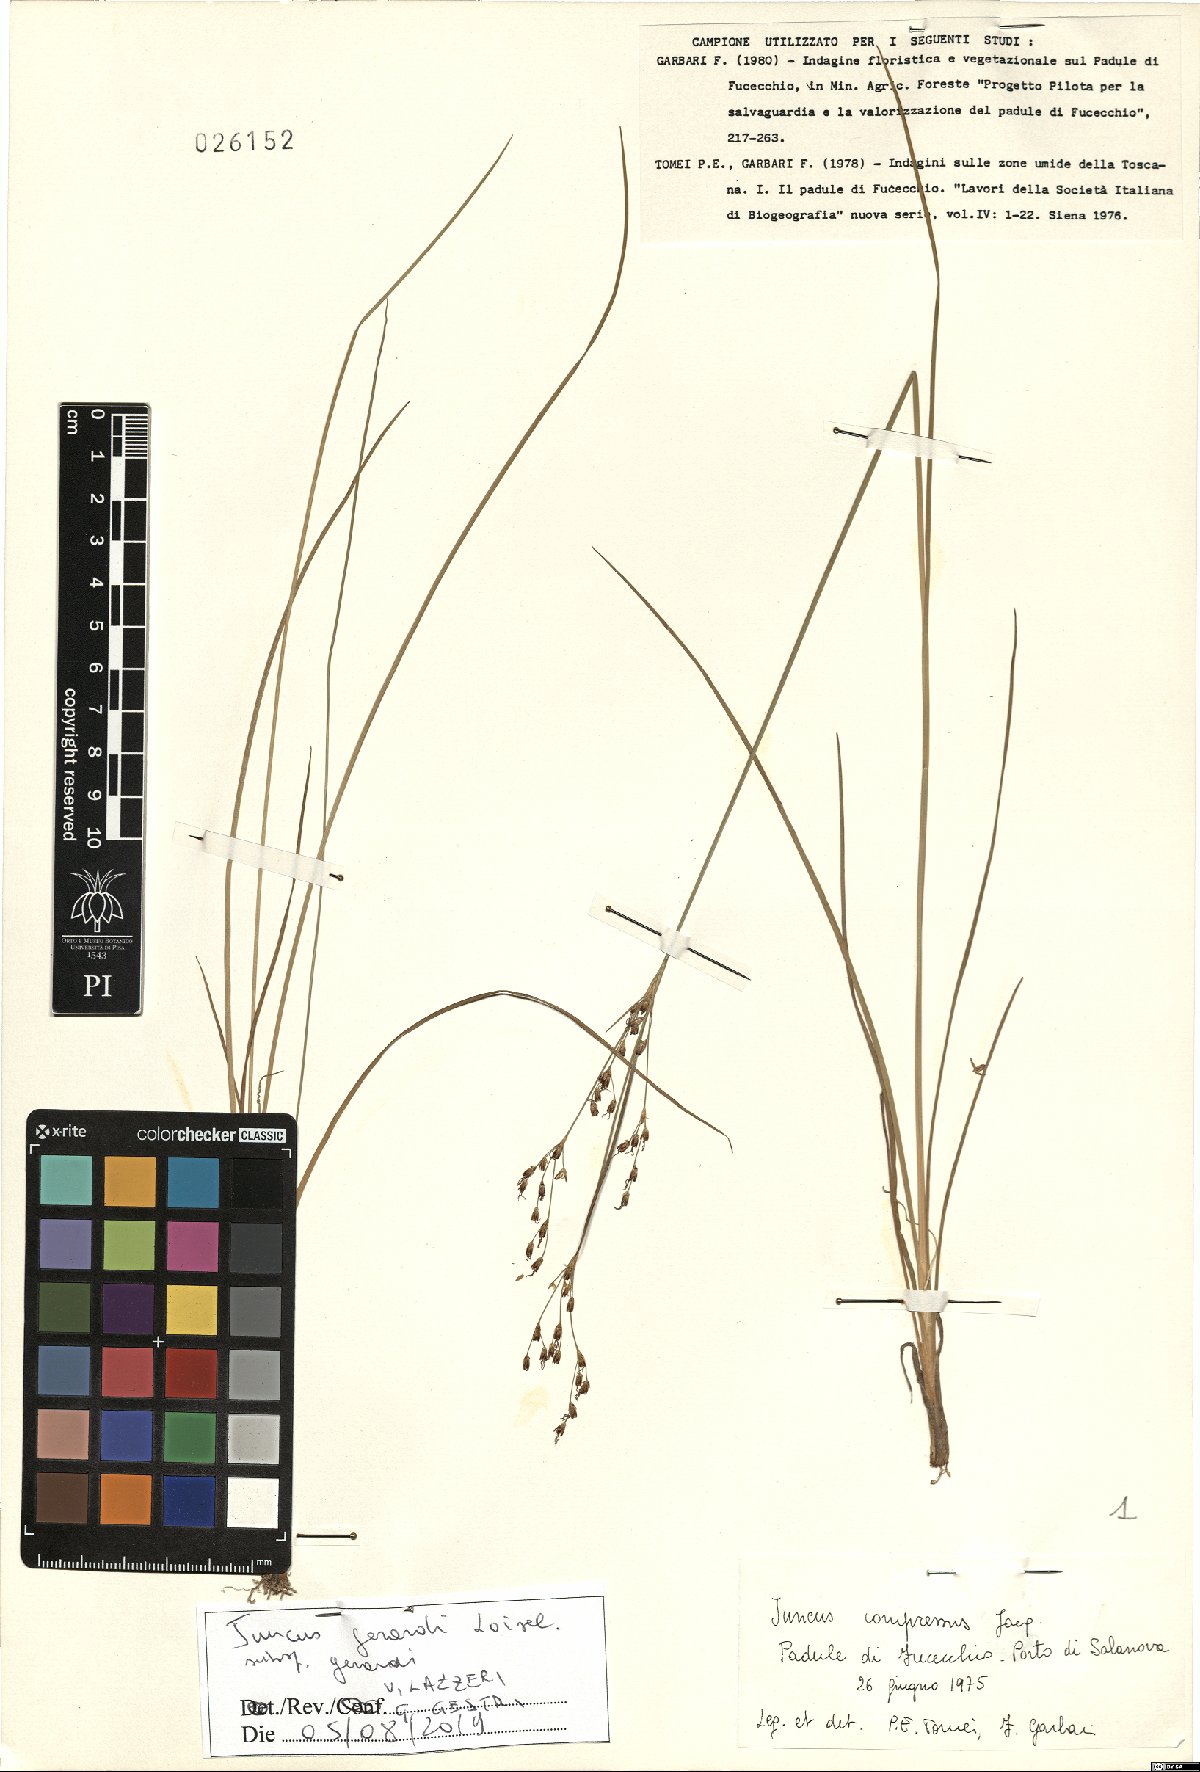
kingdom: Plantae
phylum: Tracheophyta
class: Liliopsida
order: Poales
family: Juncaceae
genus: Juncus
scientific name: Juncus gerardi
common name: Saltmarsh rush
